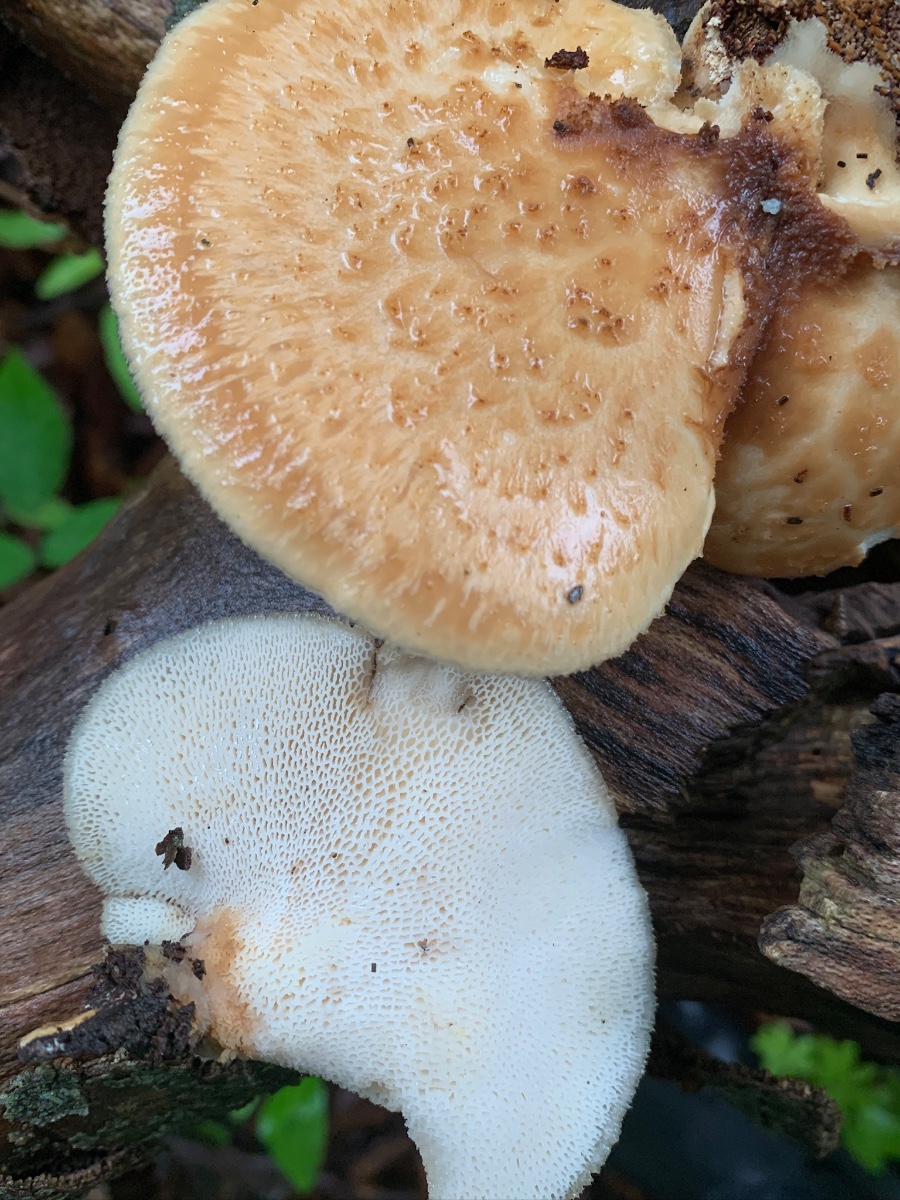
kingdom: Fungi
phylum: Basidiomycota
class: Agaricomycetes
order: Polyporales
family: Polyporaceae
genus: Polyporus
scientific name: Polyporus tuberaster
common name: knoldet stilkporesvamp
